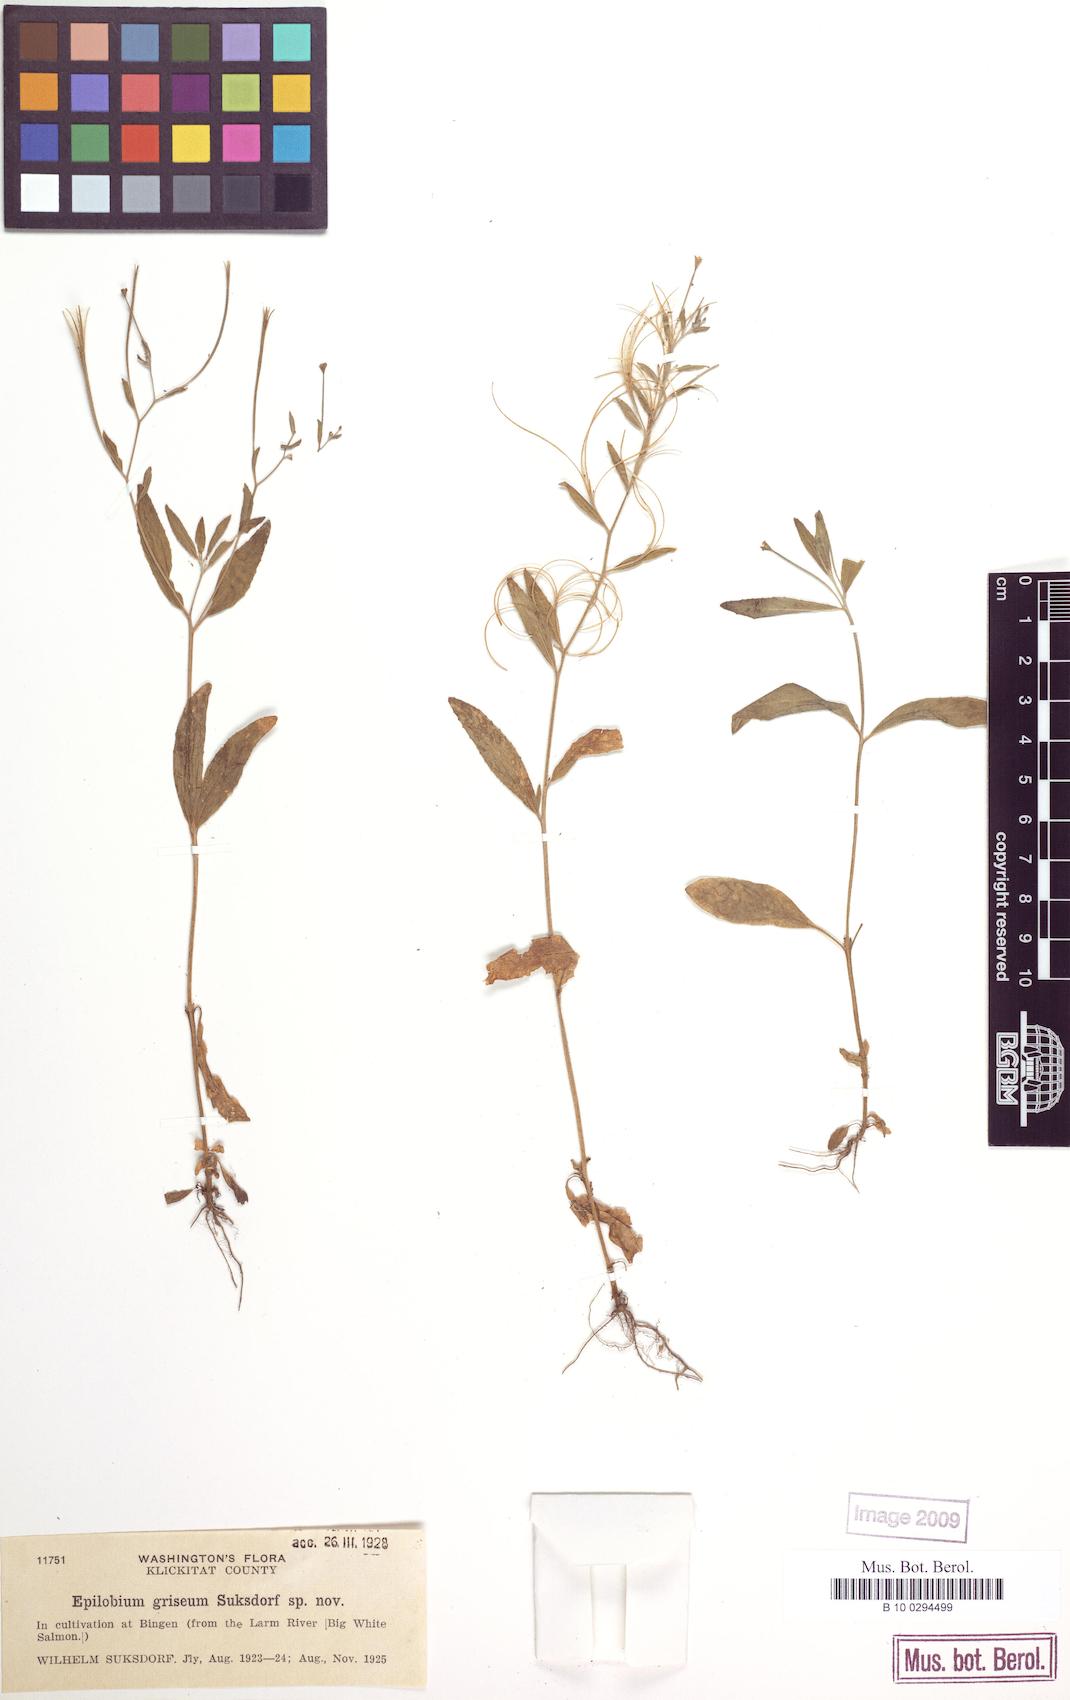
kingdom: Plantae
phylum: Tracheophyta
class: Magnoliopsida
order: Myrtales
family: Onagraceae
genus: Epilobium
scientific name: Epilobium ciliatum
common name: American willowherb
